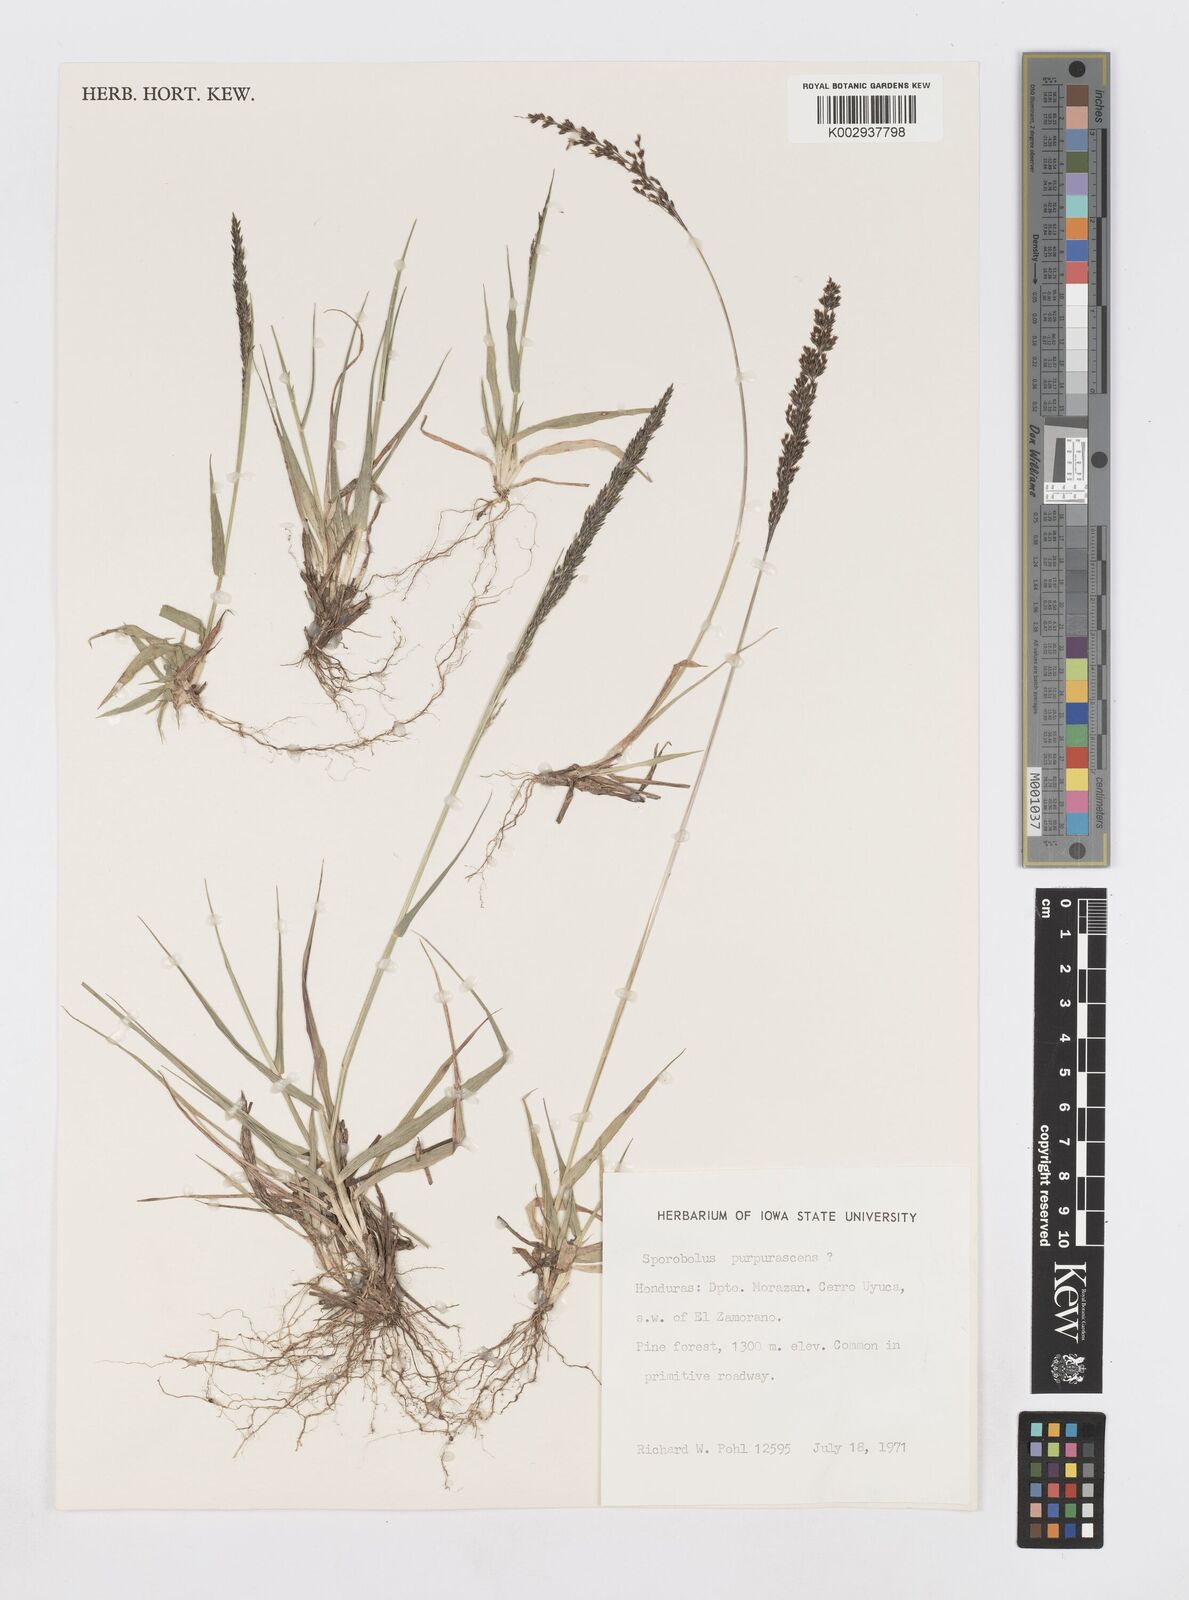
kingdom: Plantae
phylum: Tracheophyta
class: Liliopsida
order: Poales
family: Poaceae
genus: Sporobolus
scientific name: Sporobolus purpurascens
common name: Purple dropseed
